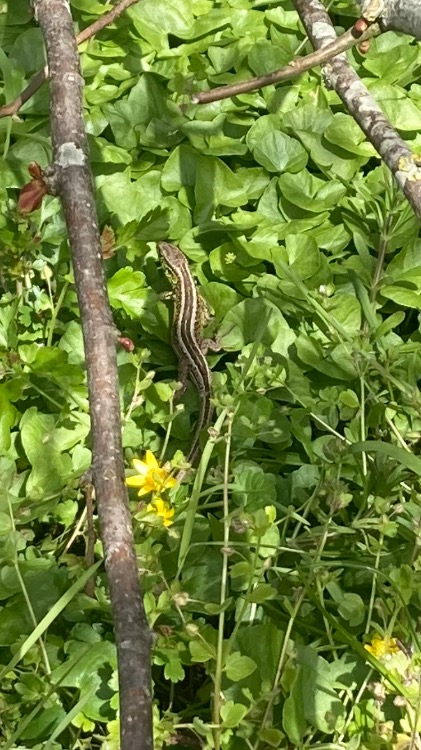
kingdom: Animalia
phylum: Chordata
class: Squamata
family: Lacertidae
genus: Lacerta
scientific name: Lacerta agilis
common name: Markfirben
